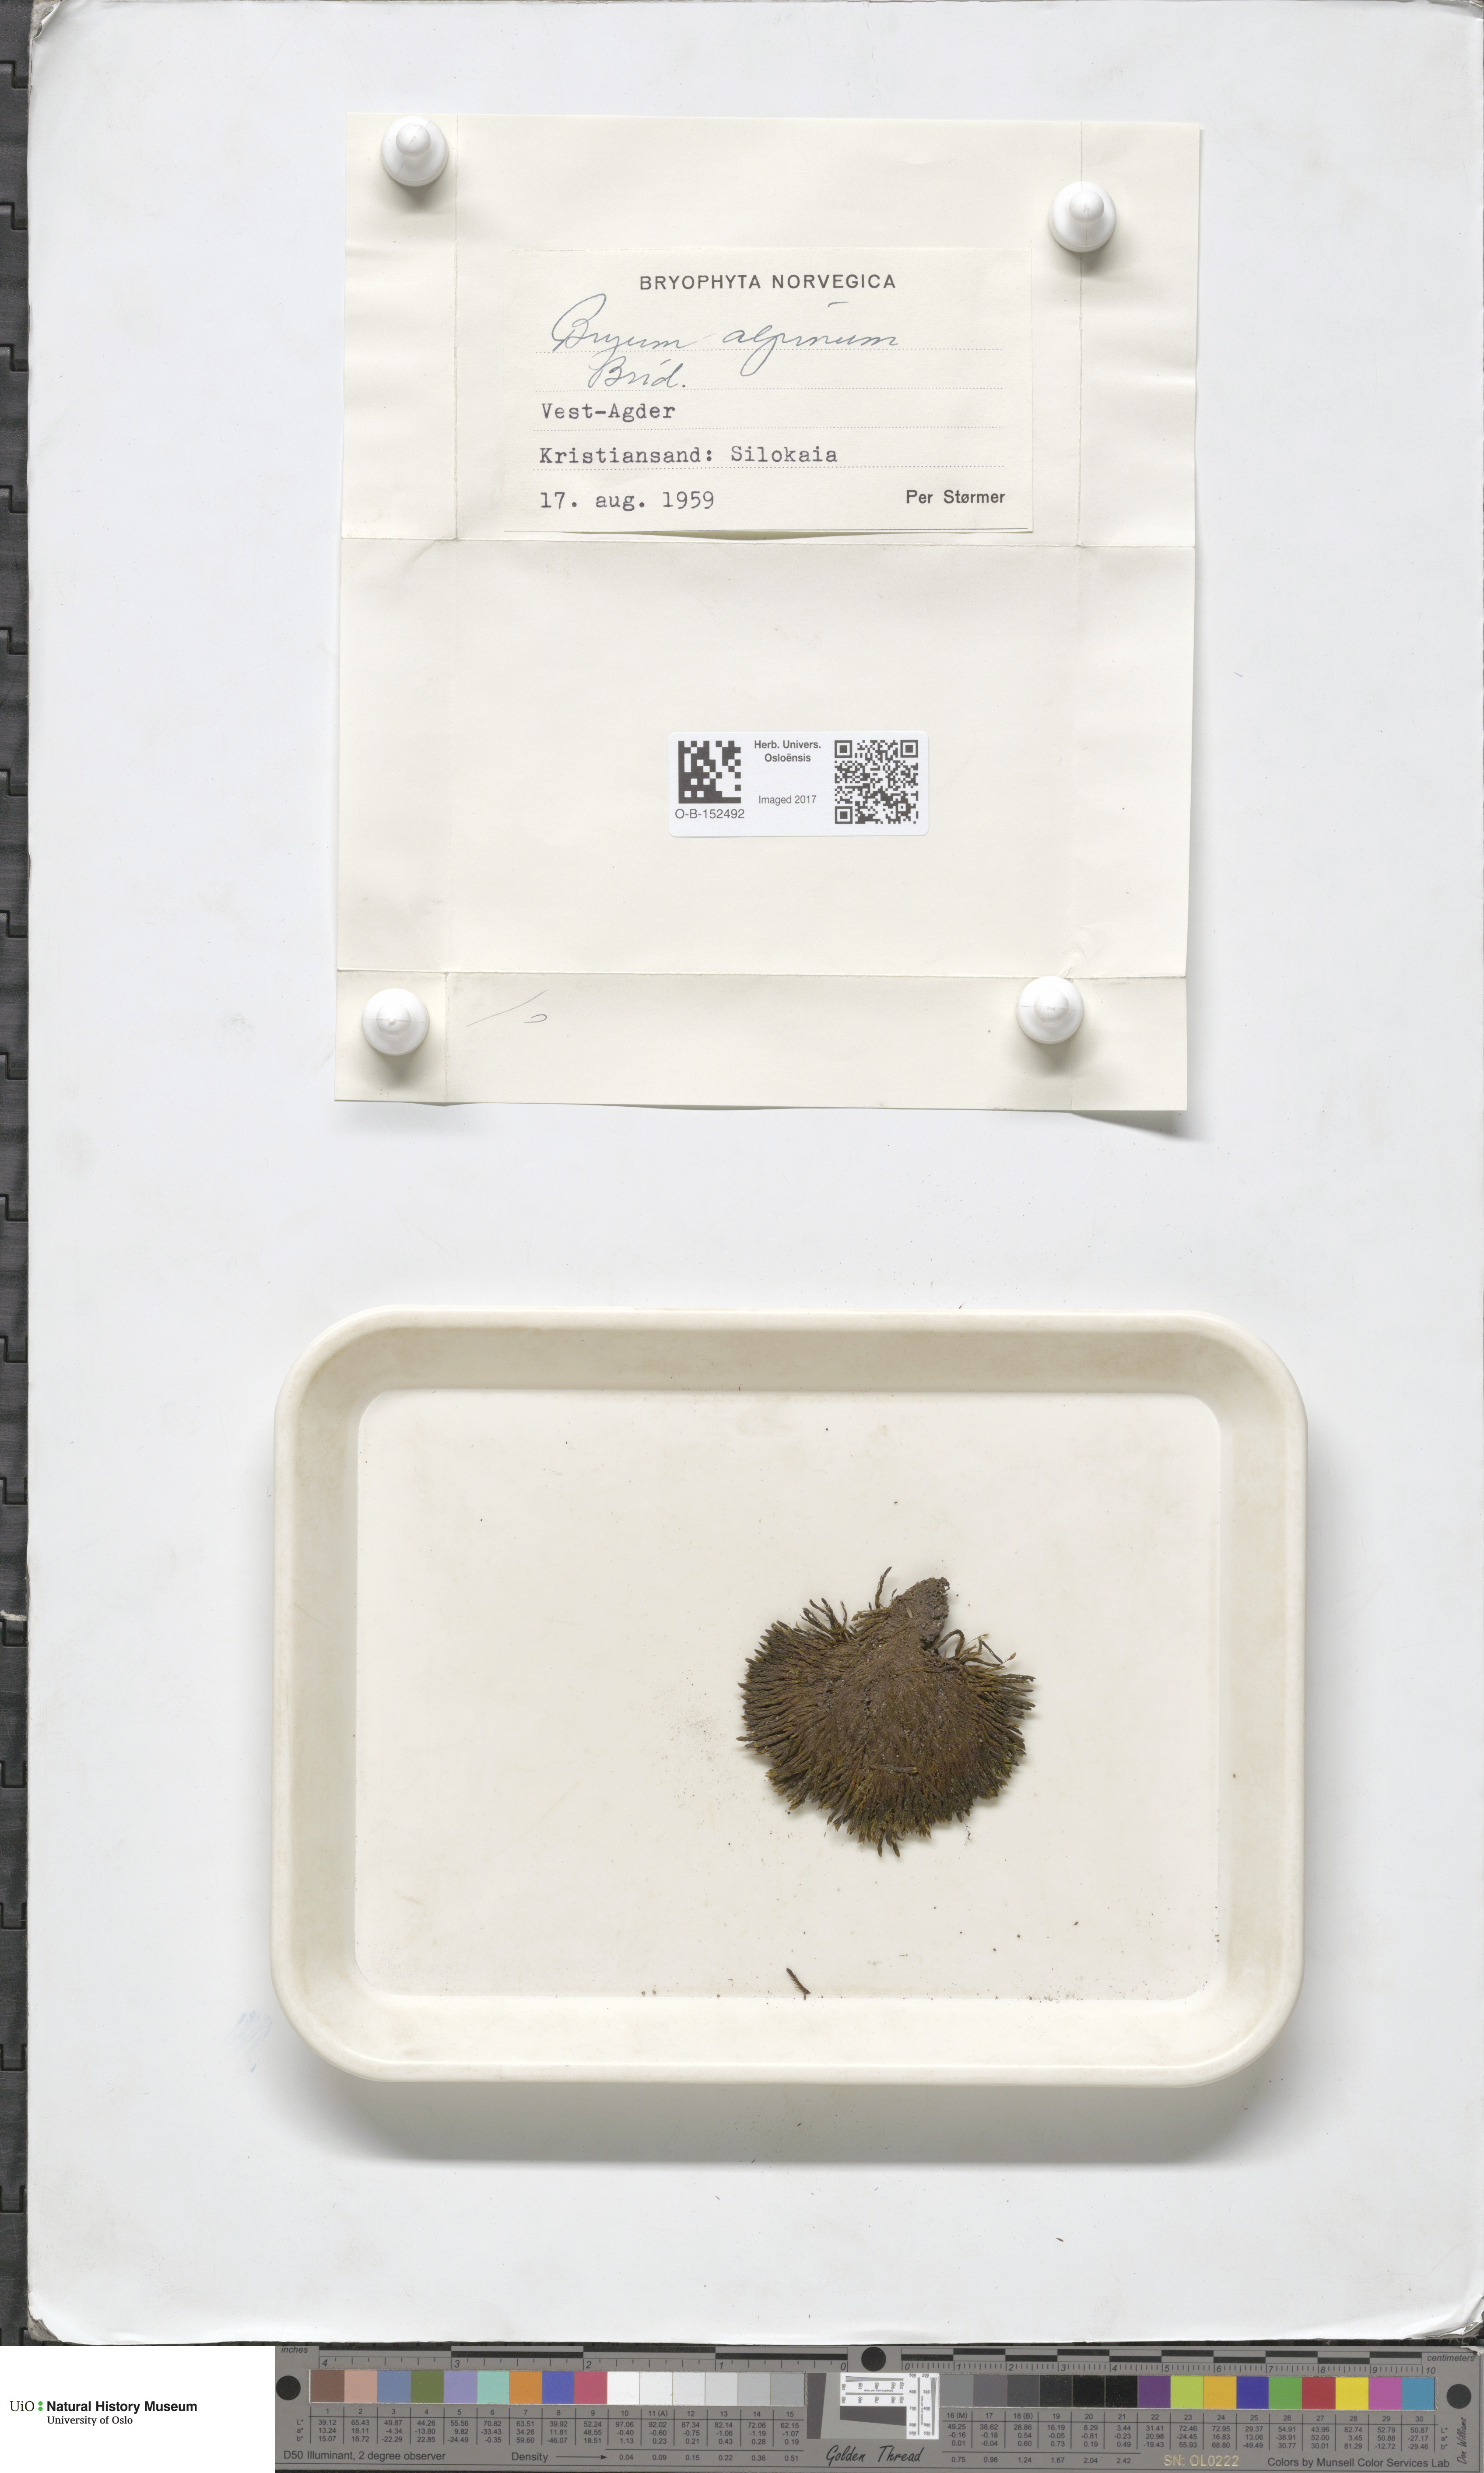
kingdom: Plantae
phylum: Bryophyta
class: Bryopsida
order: Bryales
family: Bryaceae
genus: Imbribryum
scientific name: Imbribryum alpinum
